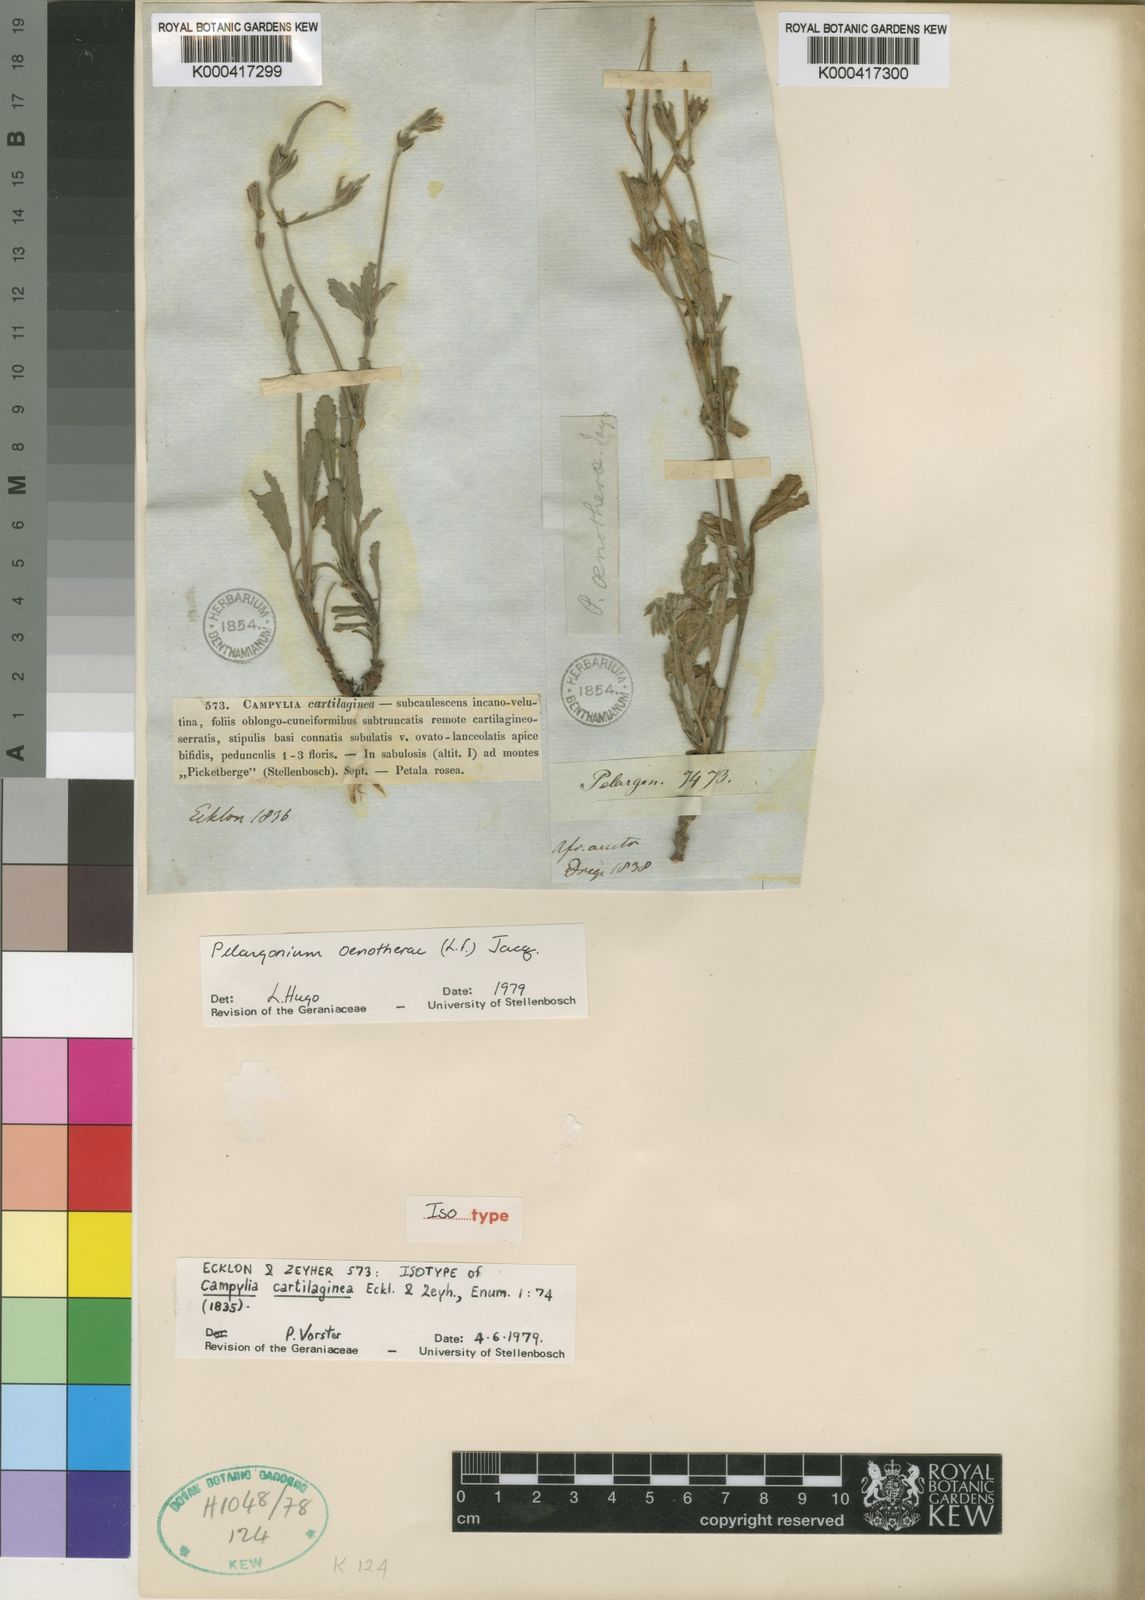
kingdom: Plantae
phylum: Tracheophyta
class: Magnoliopsida
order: Geraniales
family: Geraniaceae
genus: Pelargonium
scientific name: Pelargonium
